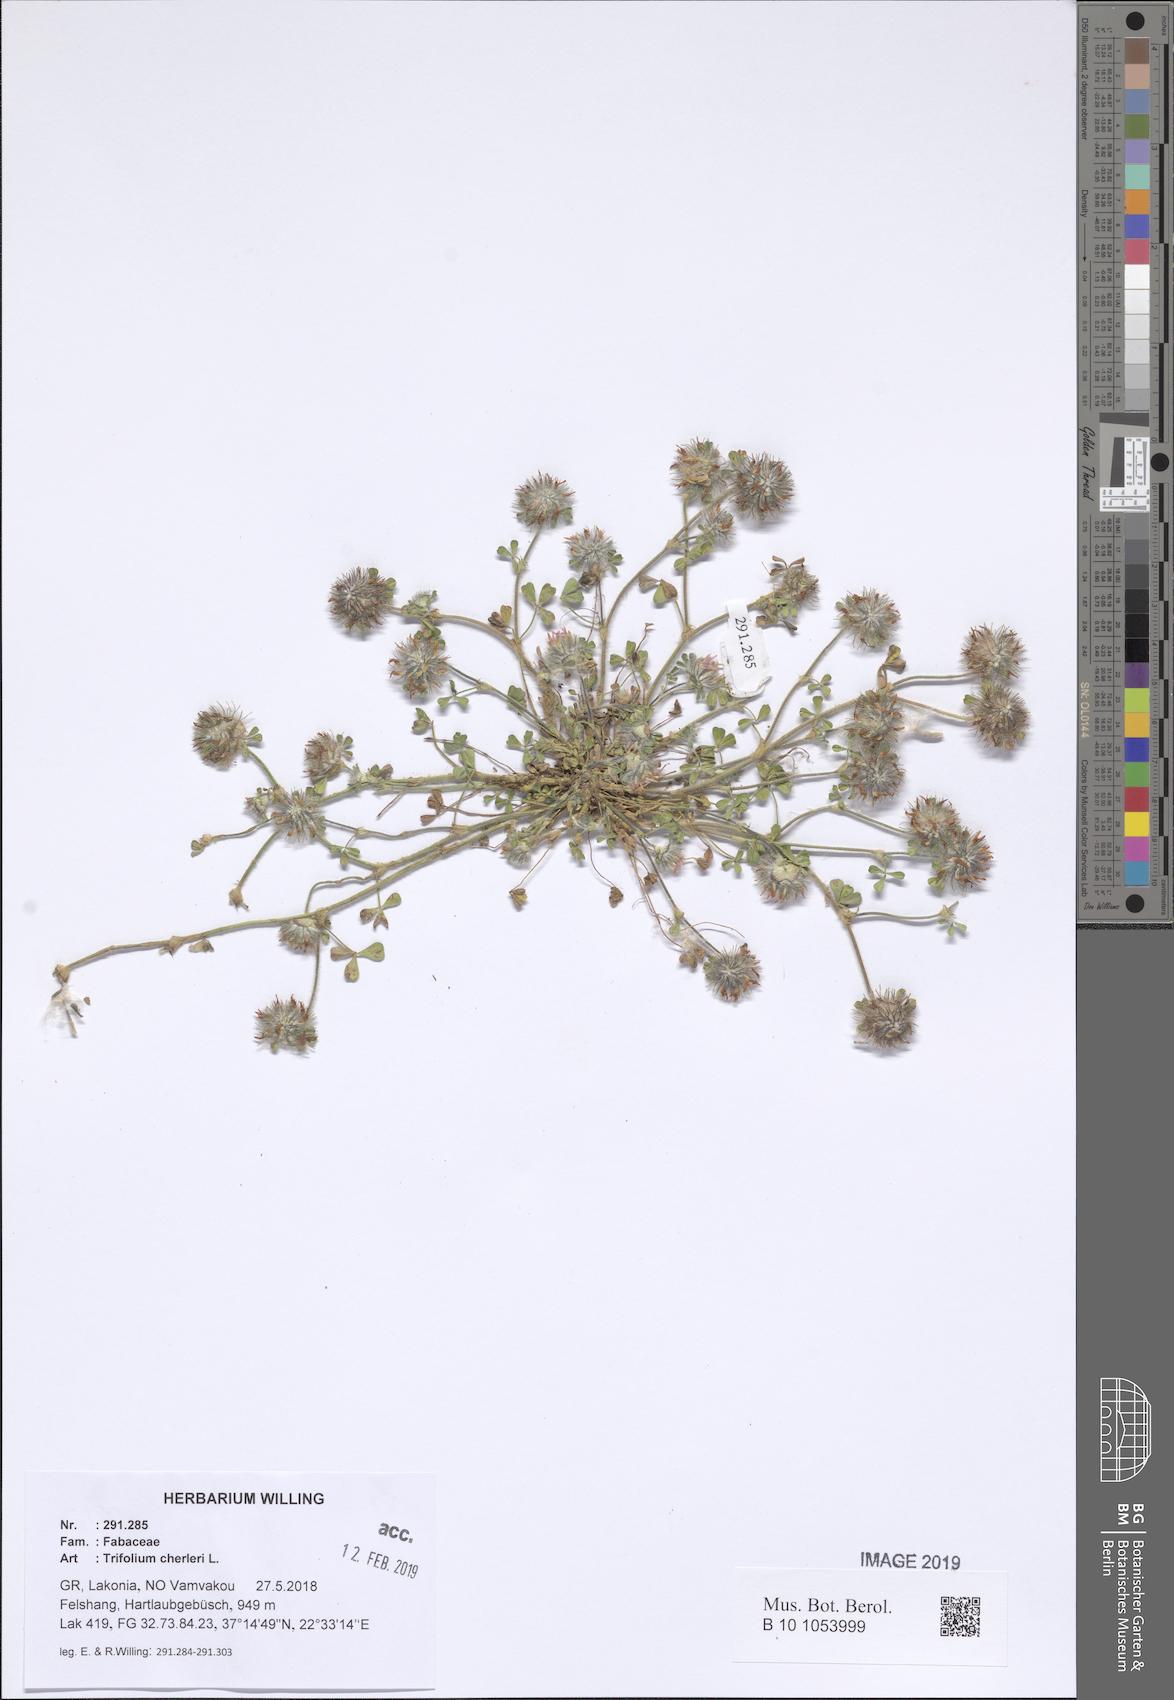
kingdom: Plantae
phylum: Tracheophyta
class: Magnoliopsida
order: Fabales
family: Fabaceae
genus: Trifolium
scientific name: Trifolium cherleri
